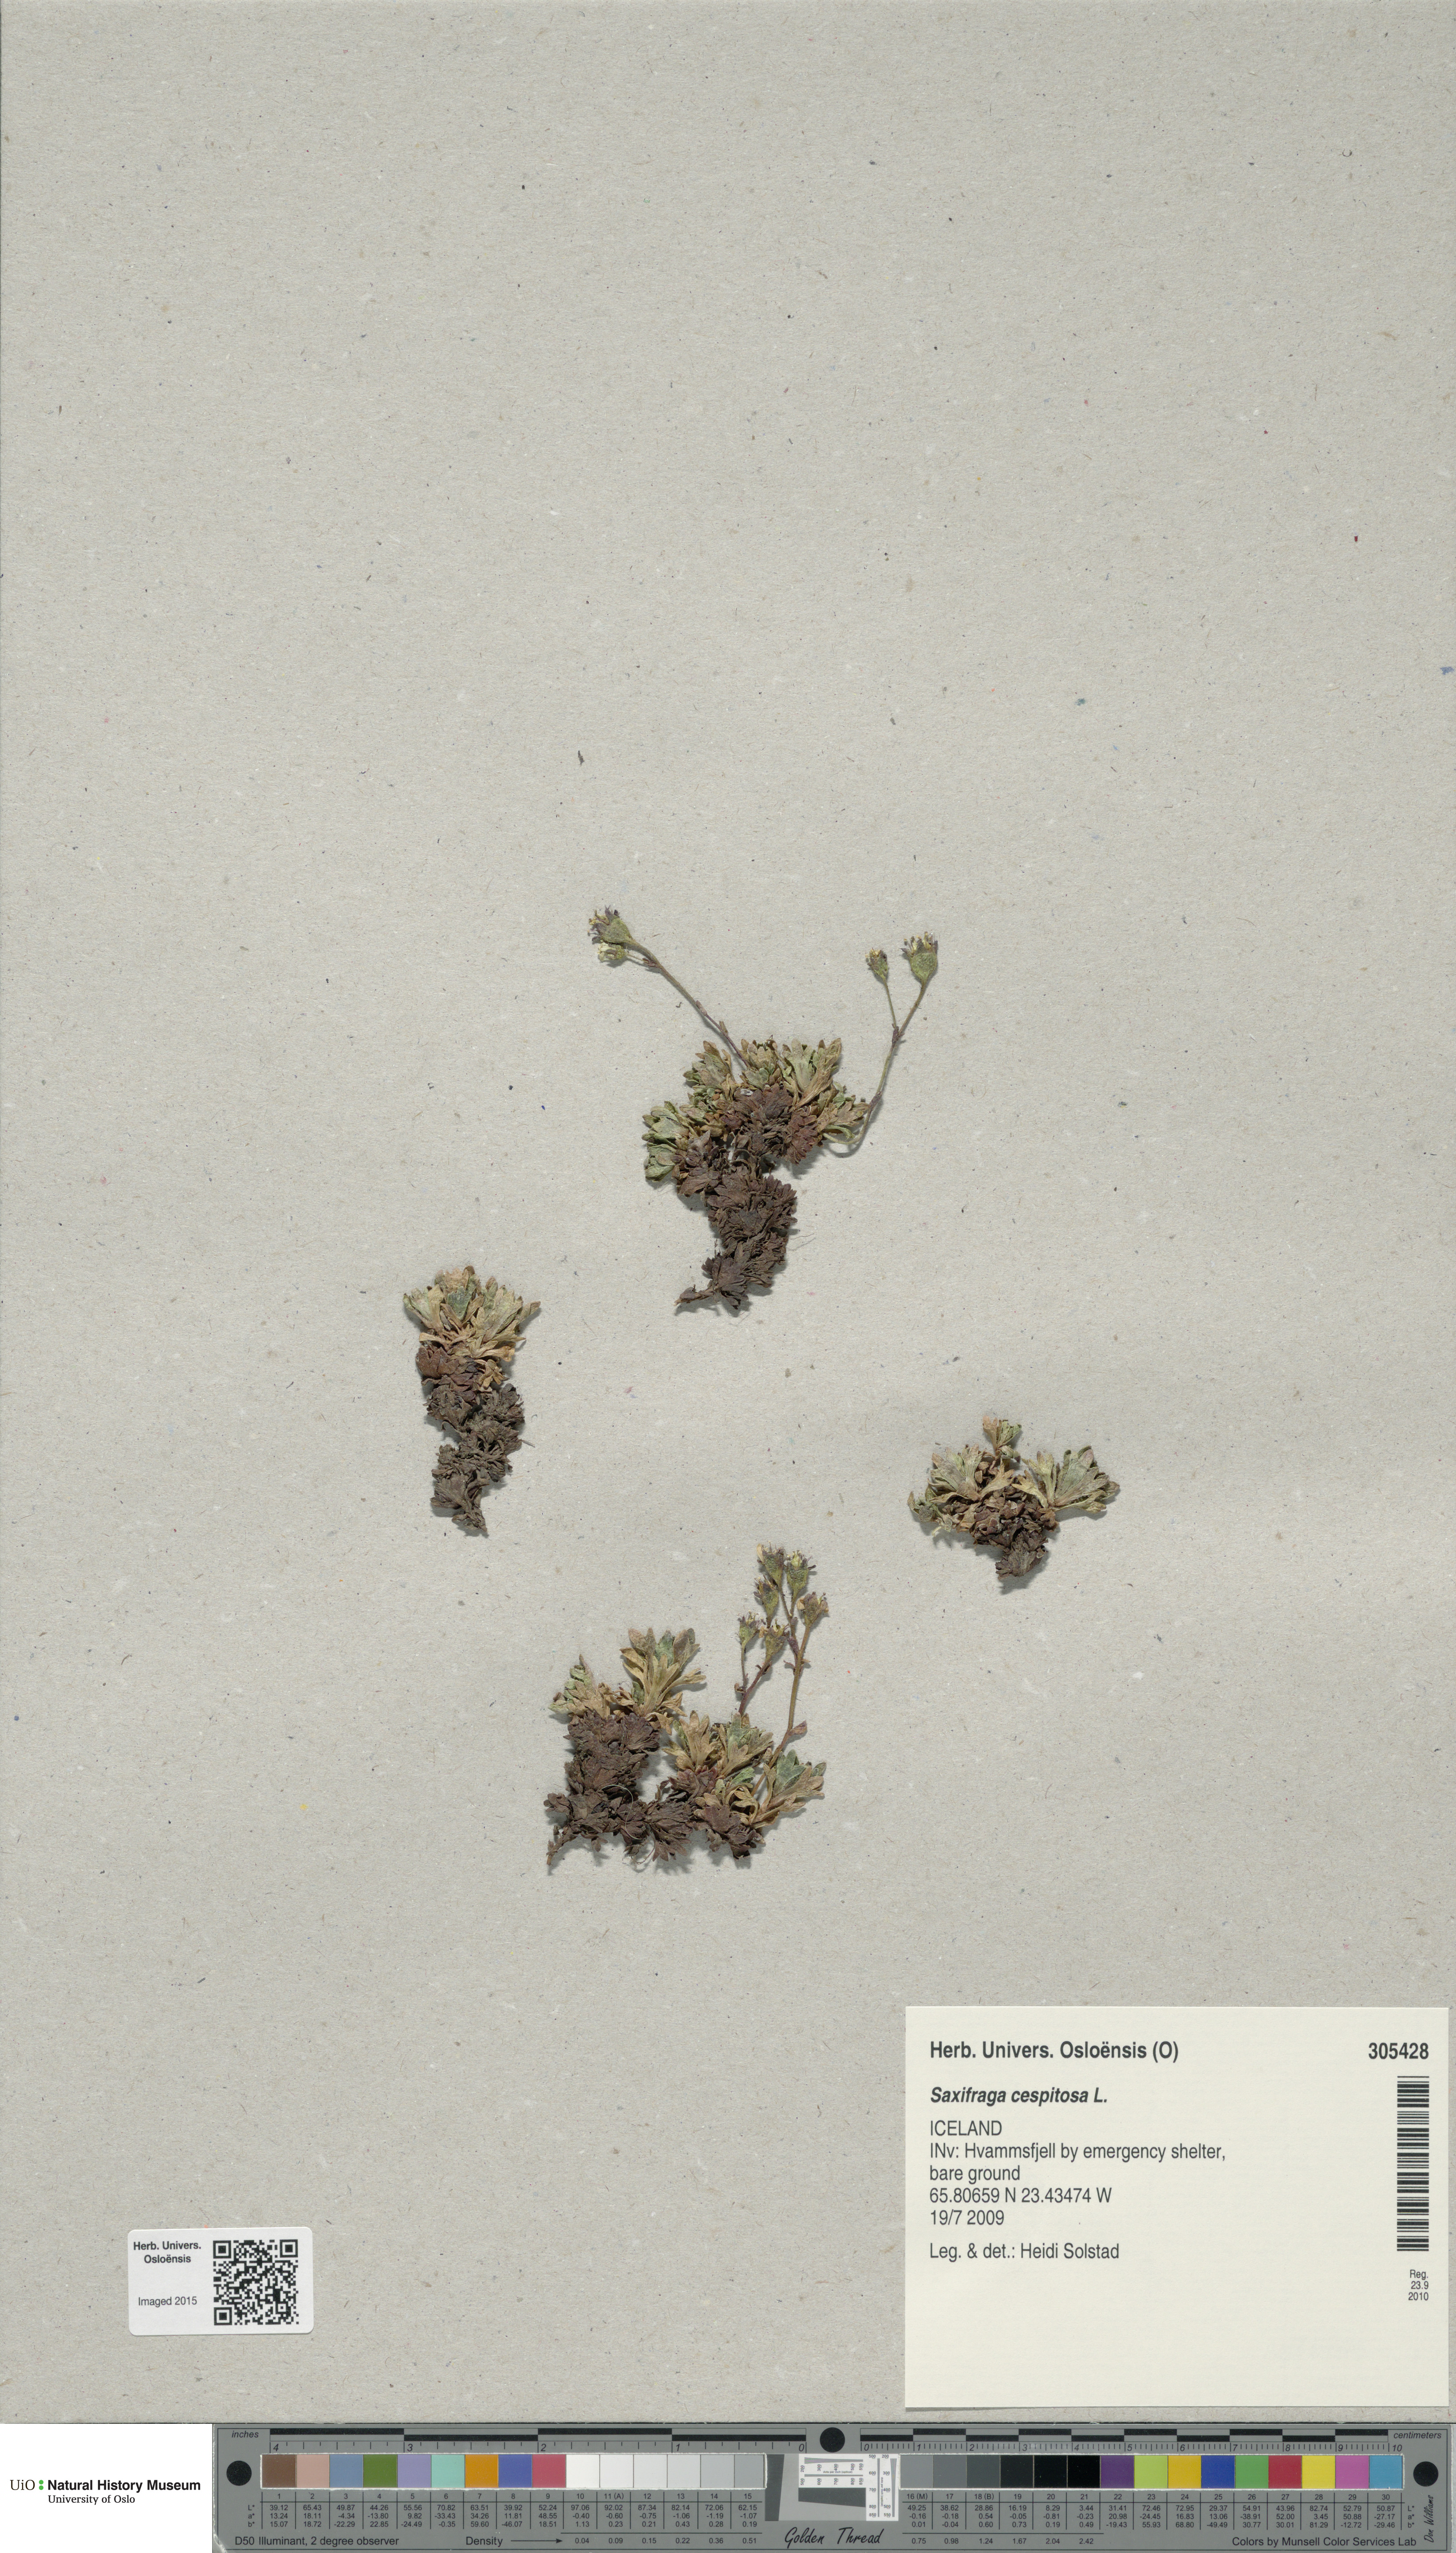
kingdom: Plantae
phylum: Tracheophyta
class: Magnoliopsida
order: Saxifragales
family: Saxifragaceae
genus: Saxifraga
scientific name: Saxifraga cespitosa
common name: Tufted saxifrage
